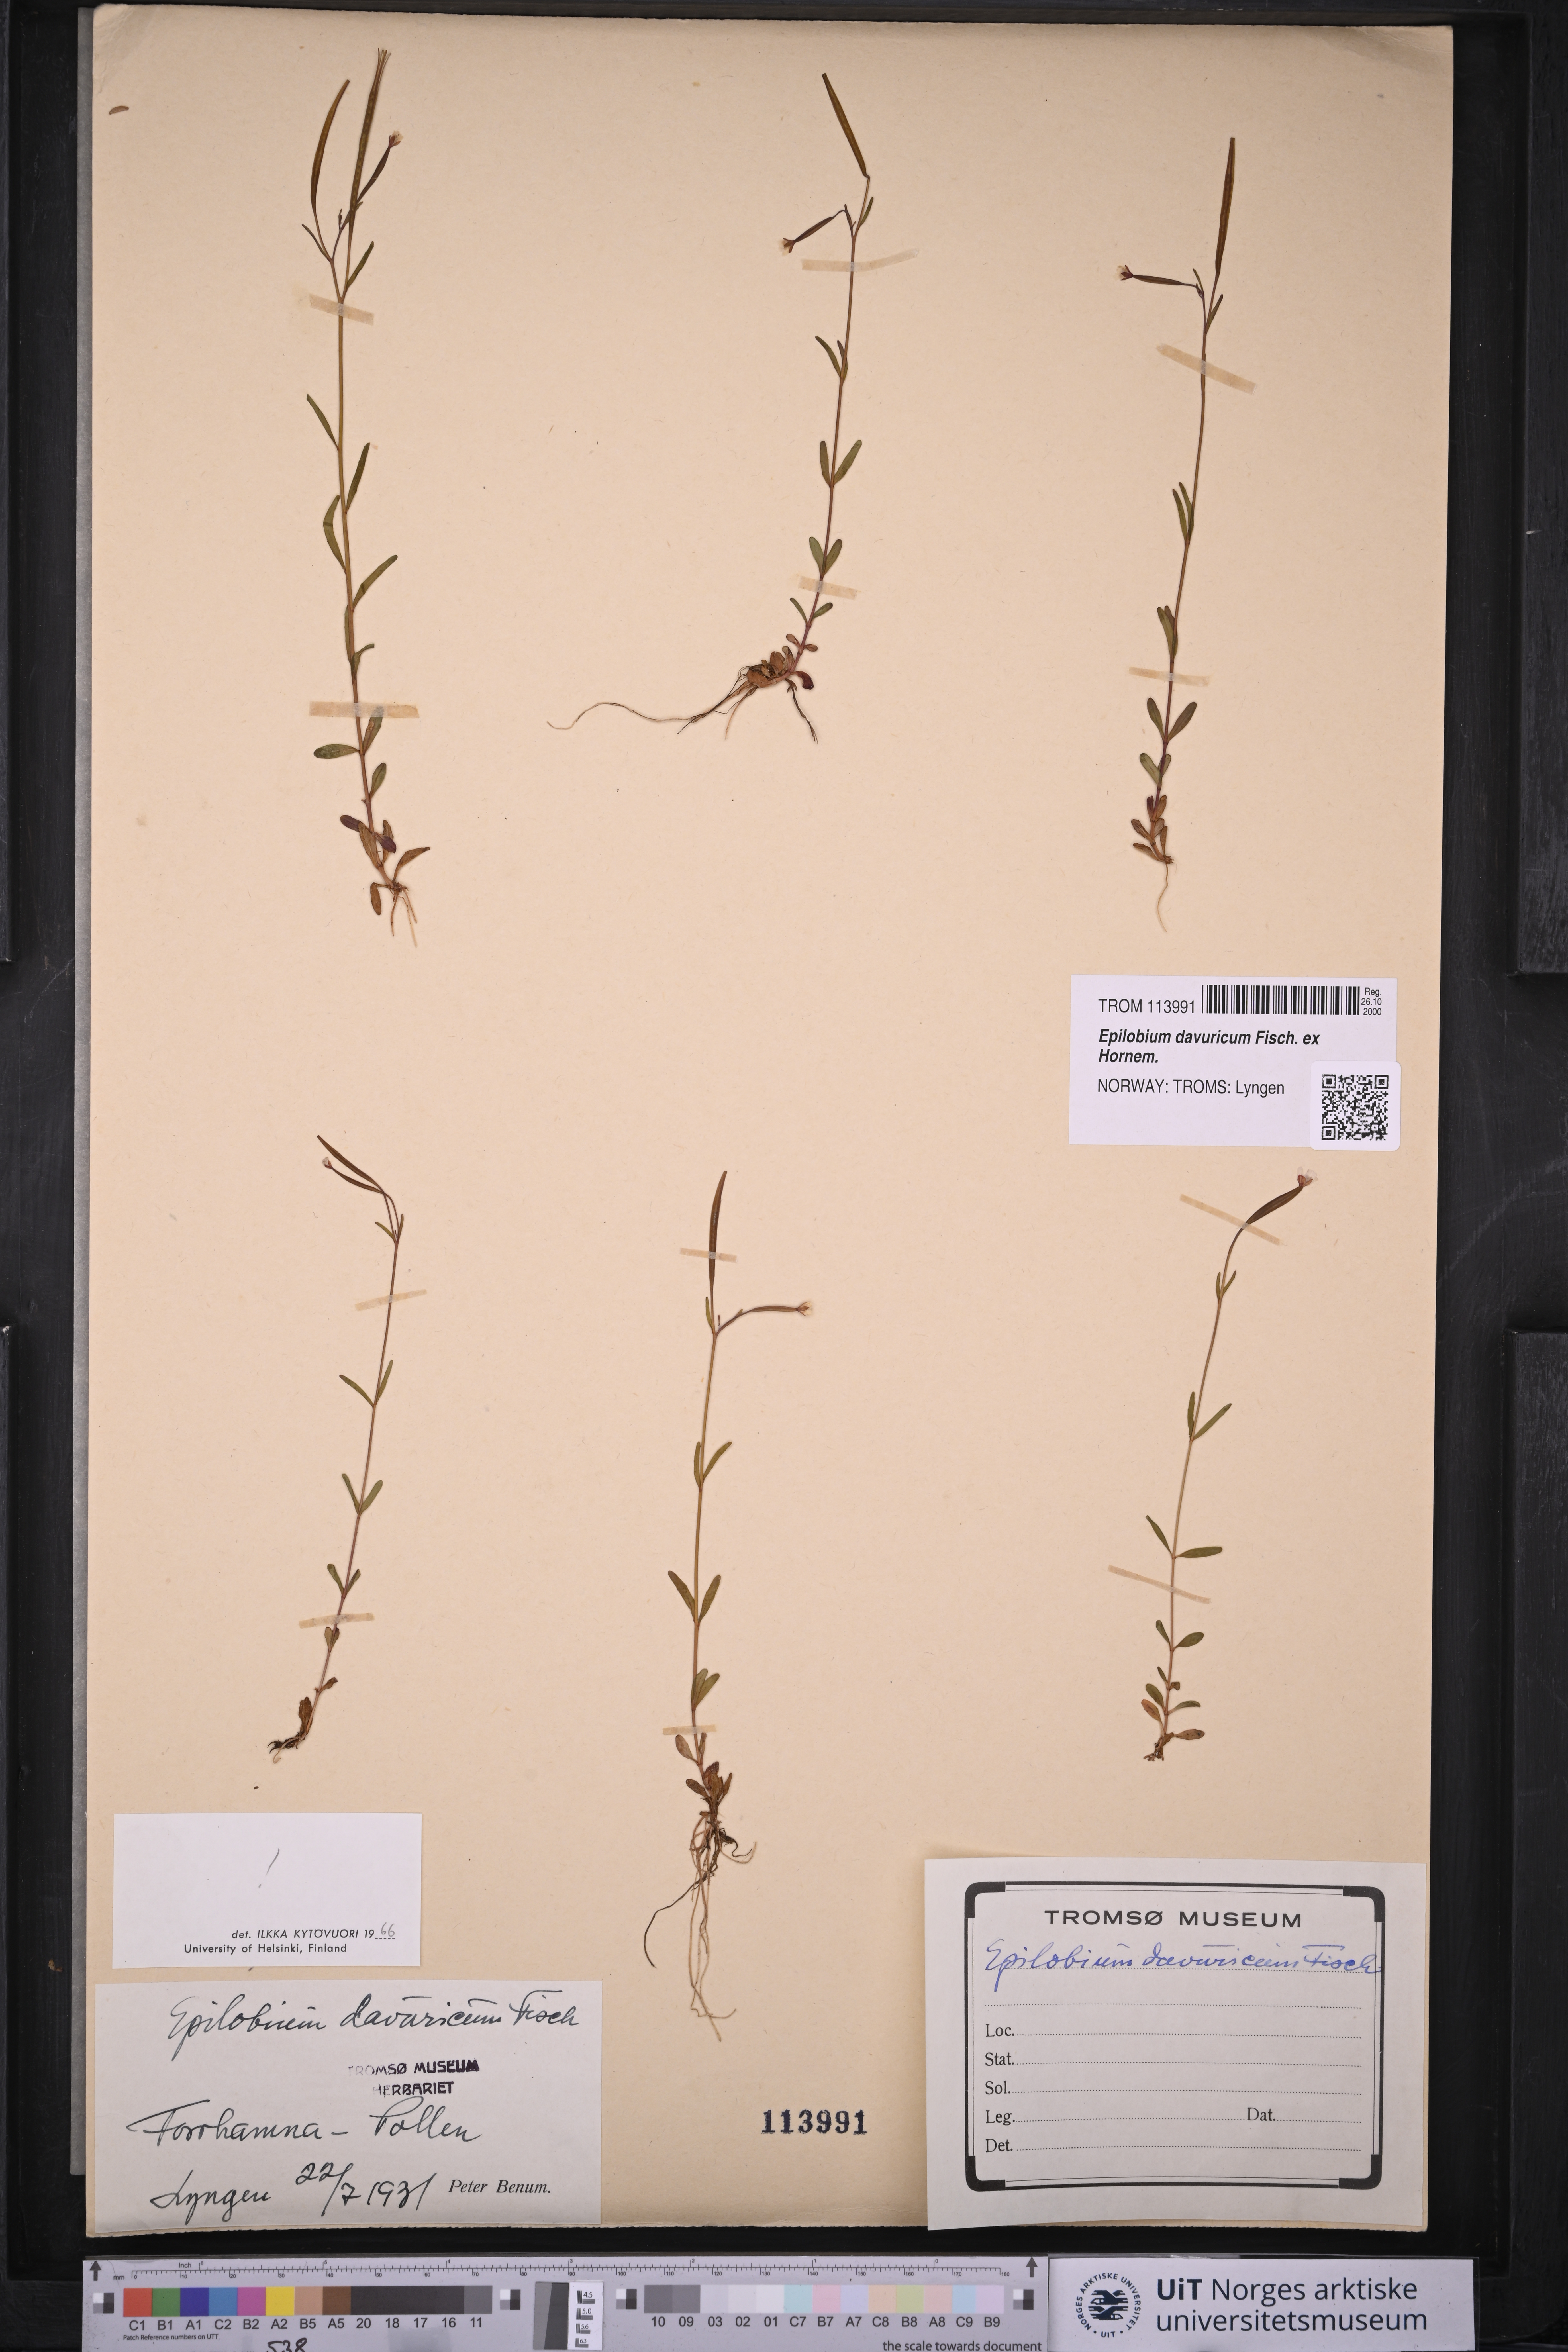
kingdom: Plantae
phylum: Tracheophyta
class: Magnoliopsida
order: Myrtales
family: Onagraceae
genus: Epilobium
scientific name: Epilobium davuricum
